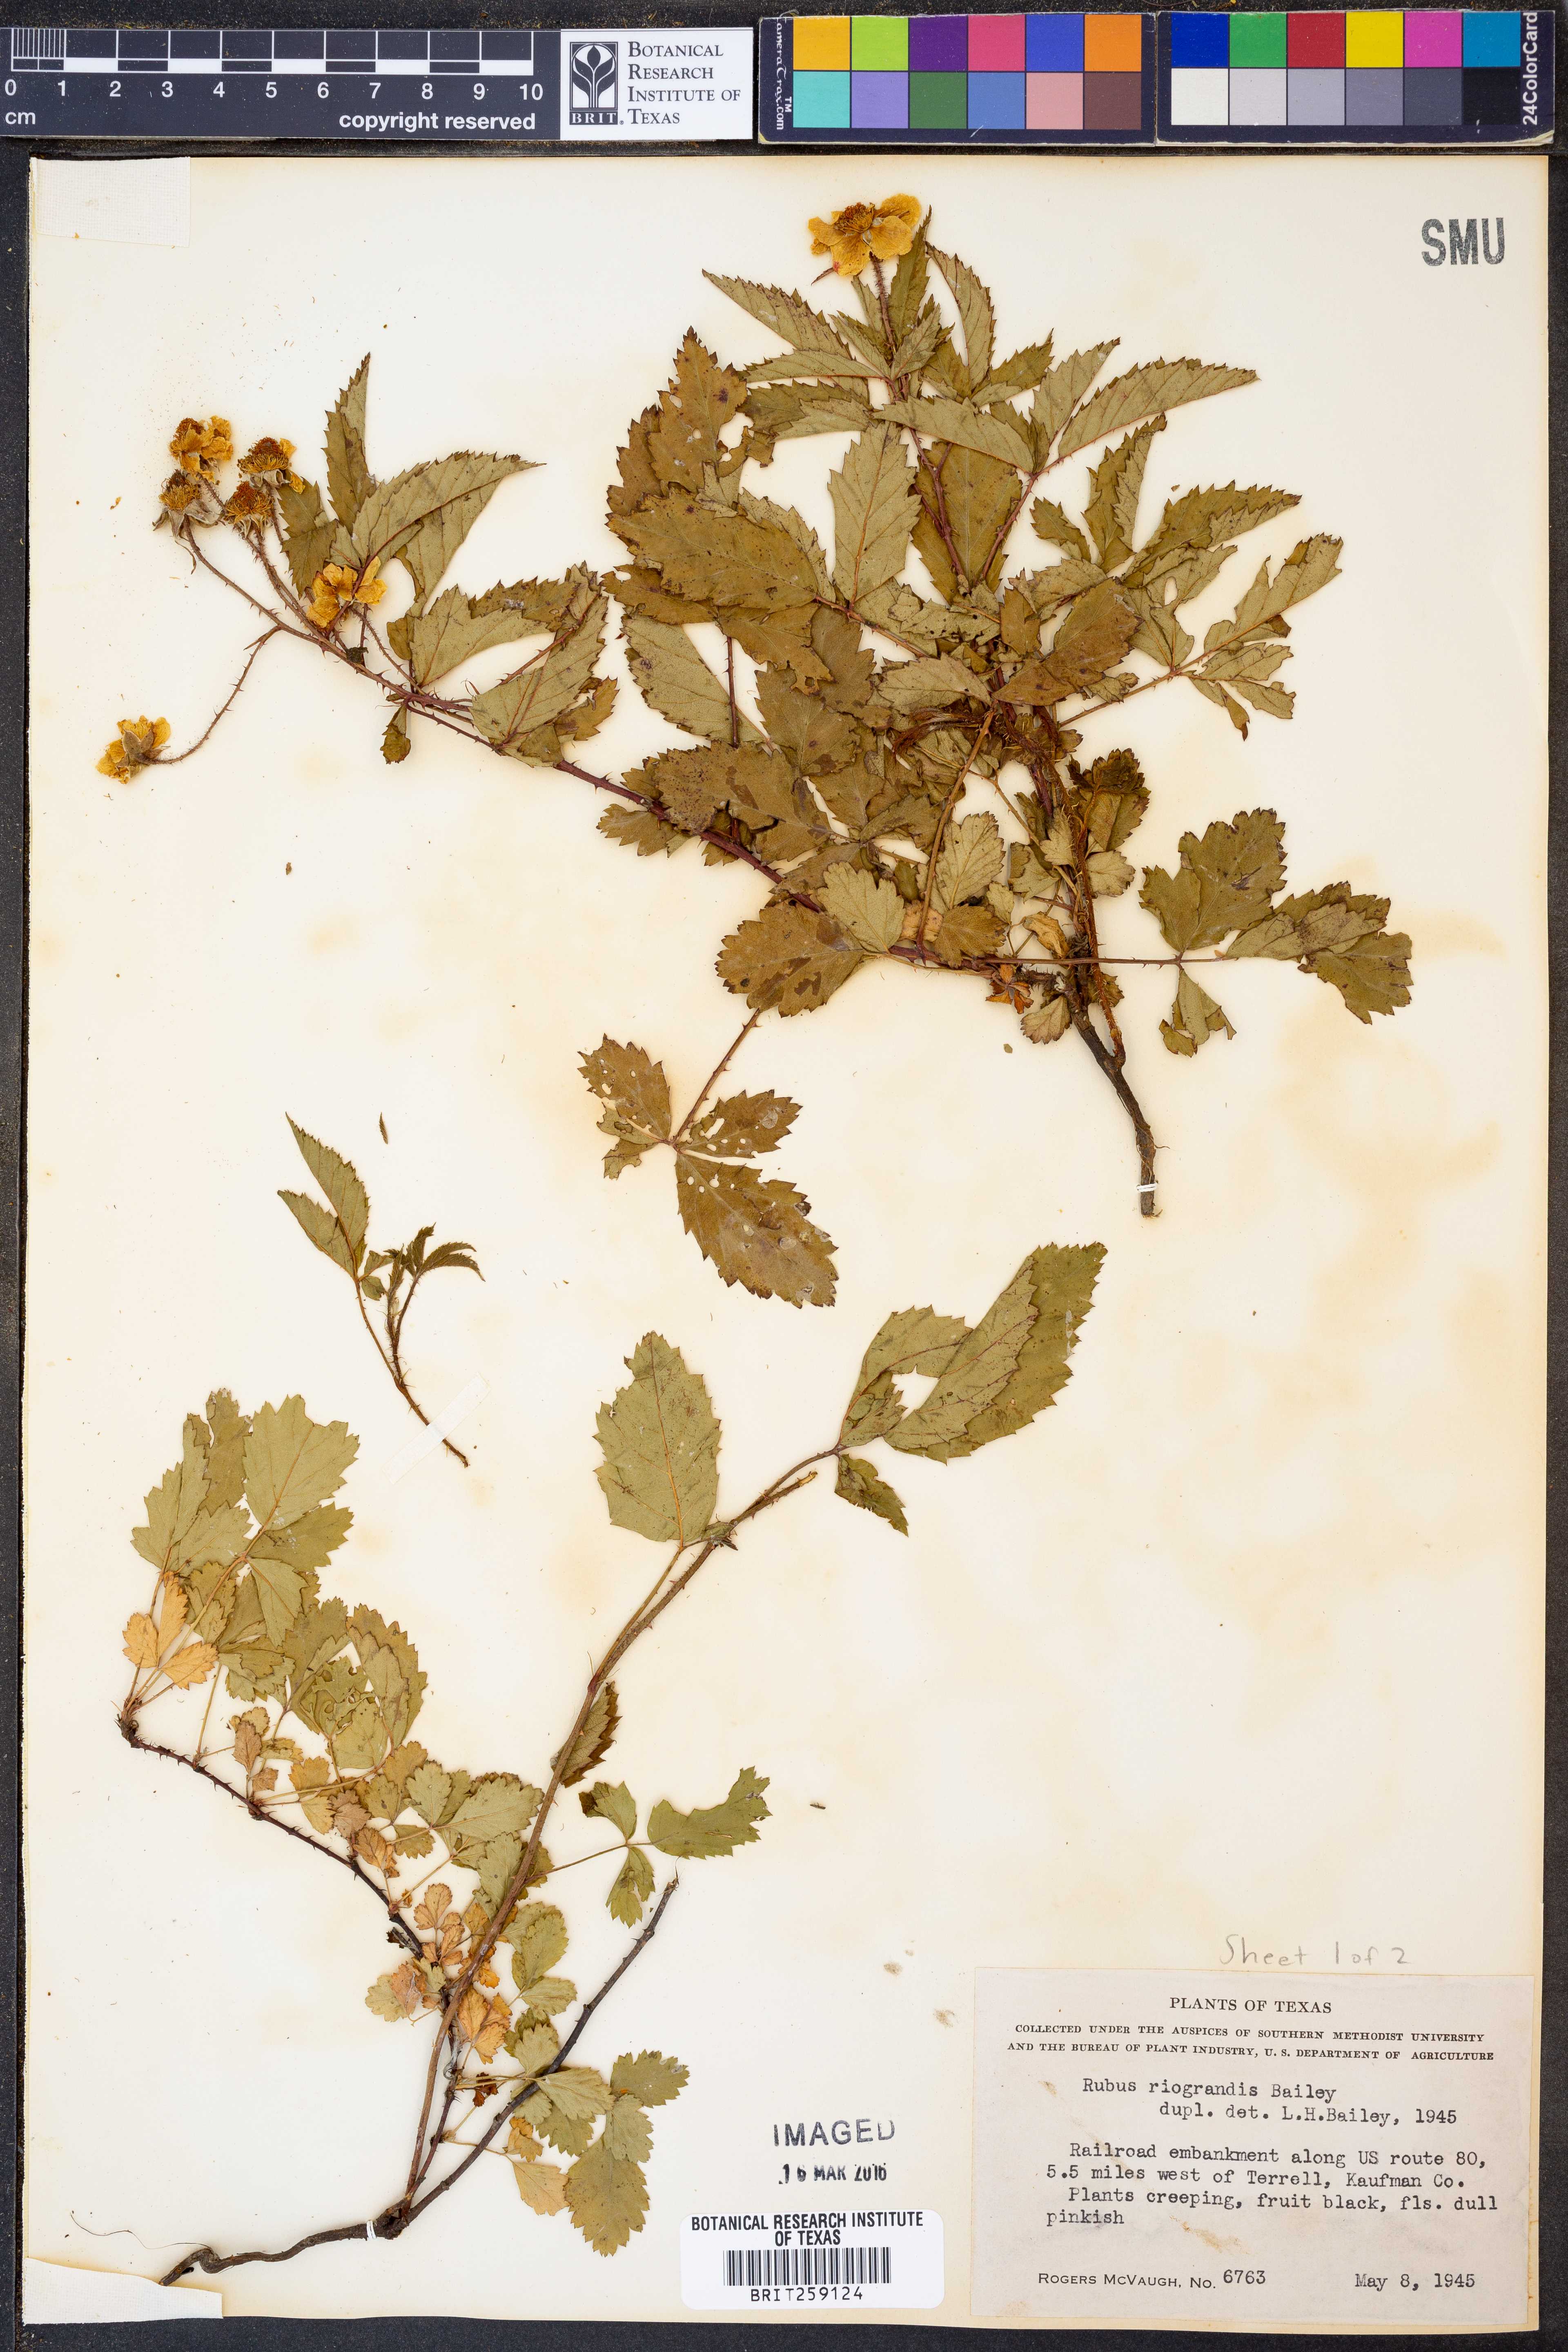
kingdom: Plantae
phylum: Tracheophyta
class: Magnoliopsida
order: Rosales
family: Rosaceae
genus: Rubus
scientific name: Rubus riograndis
